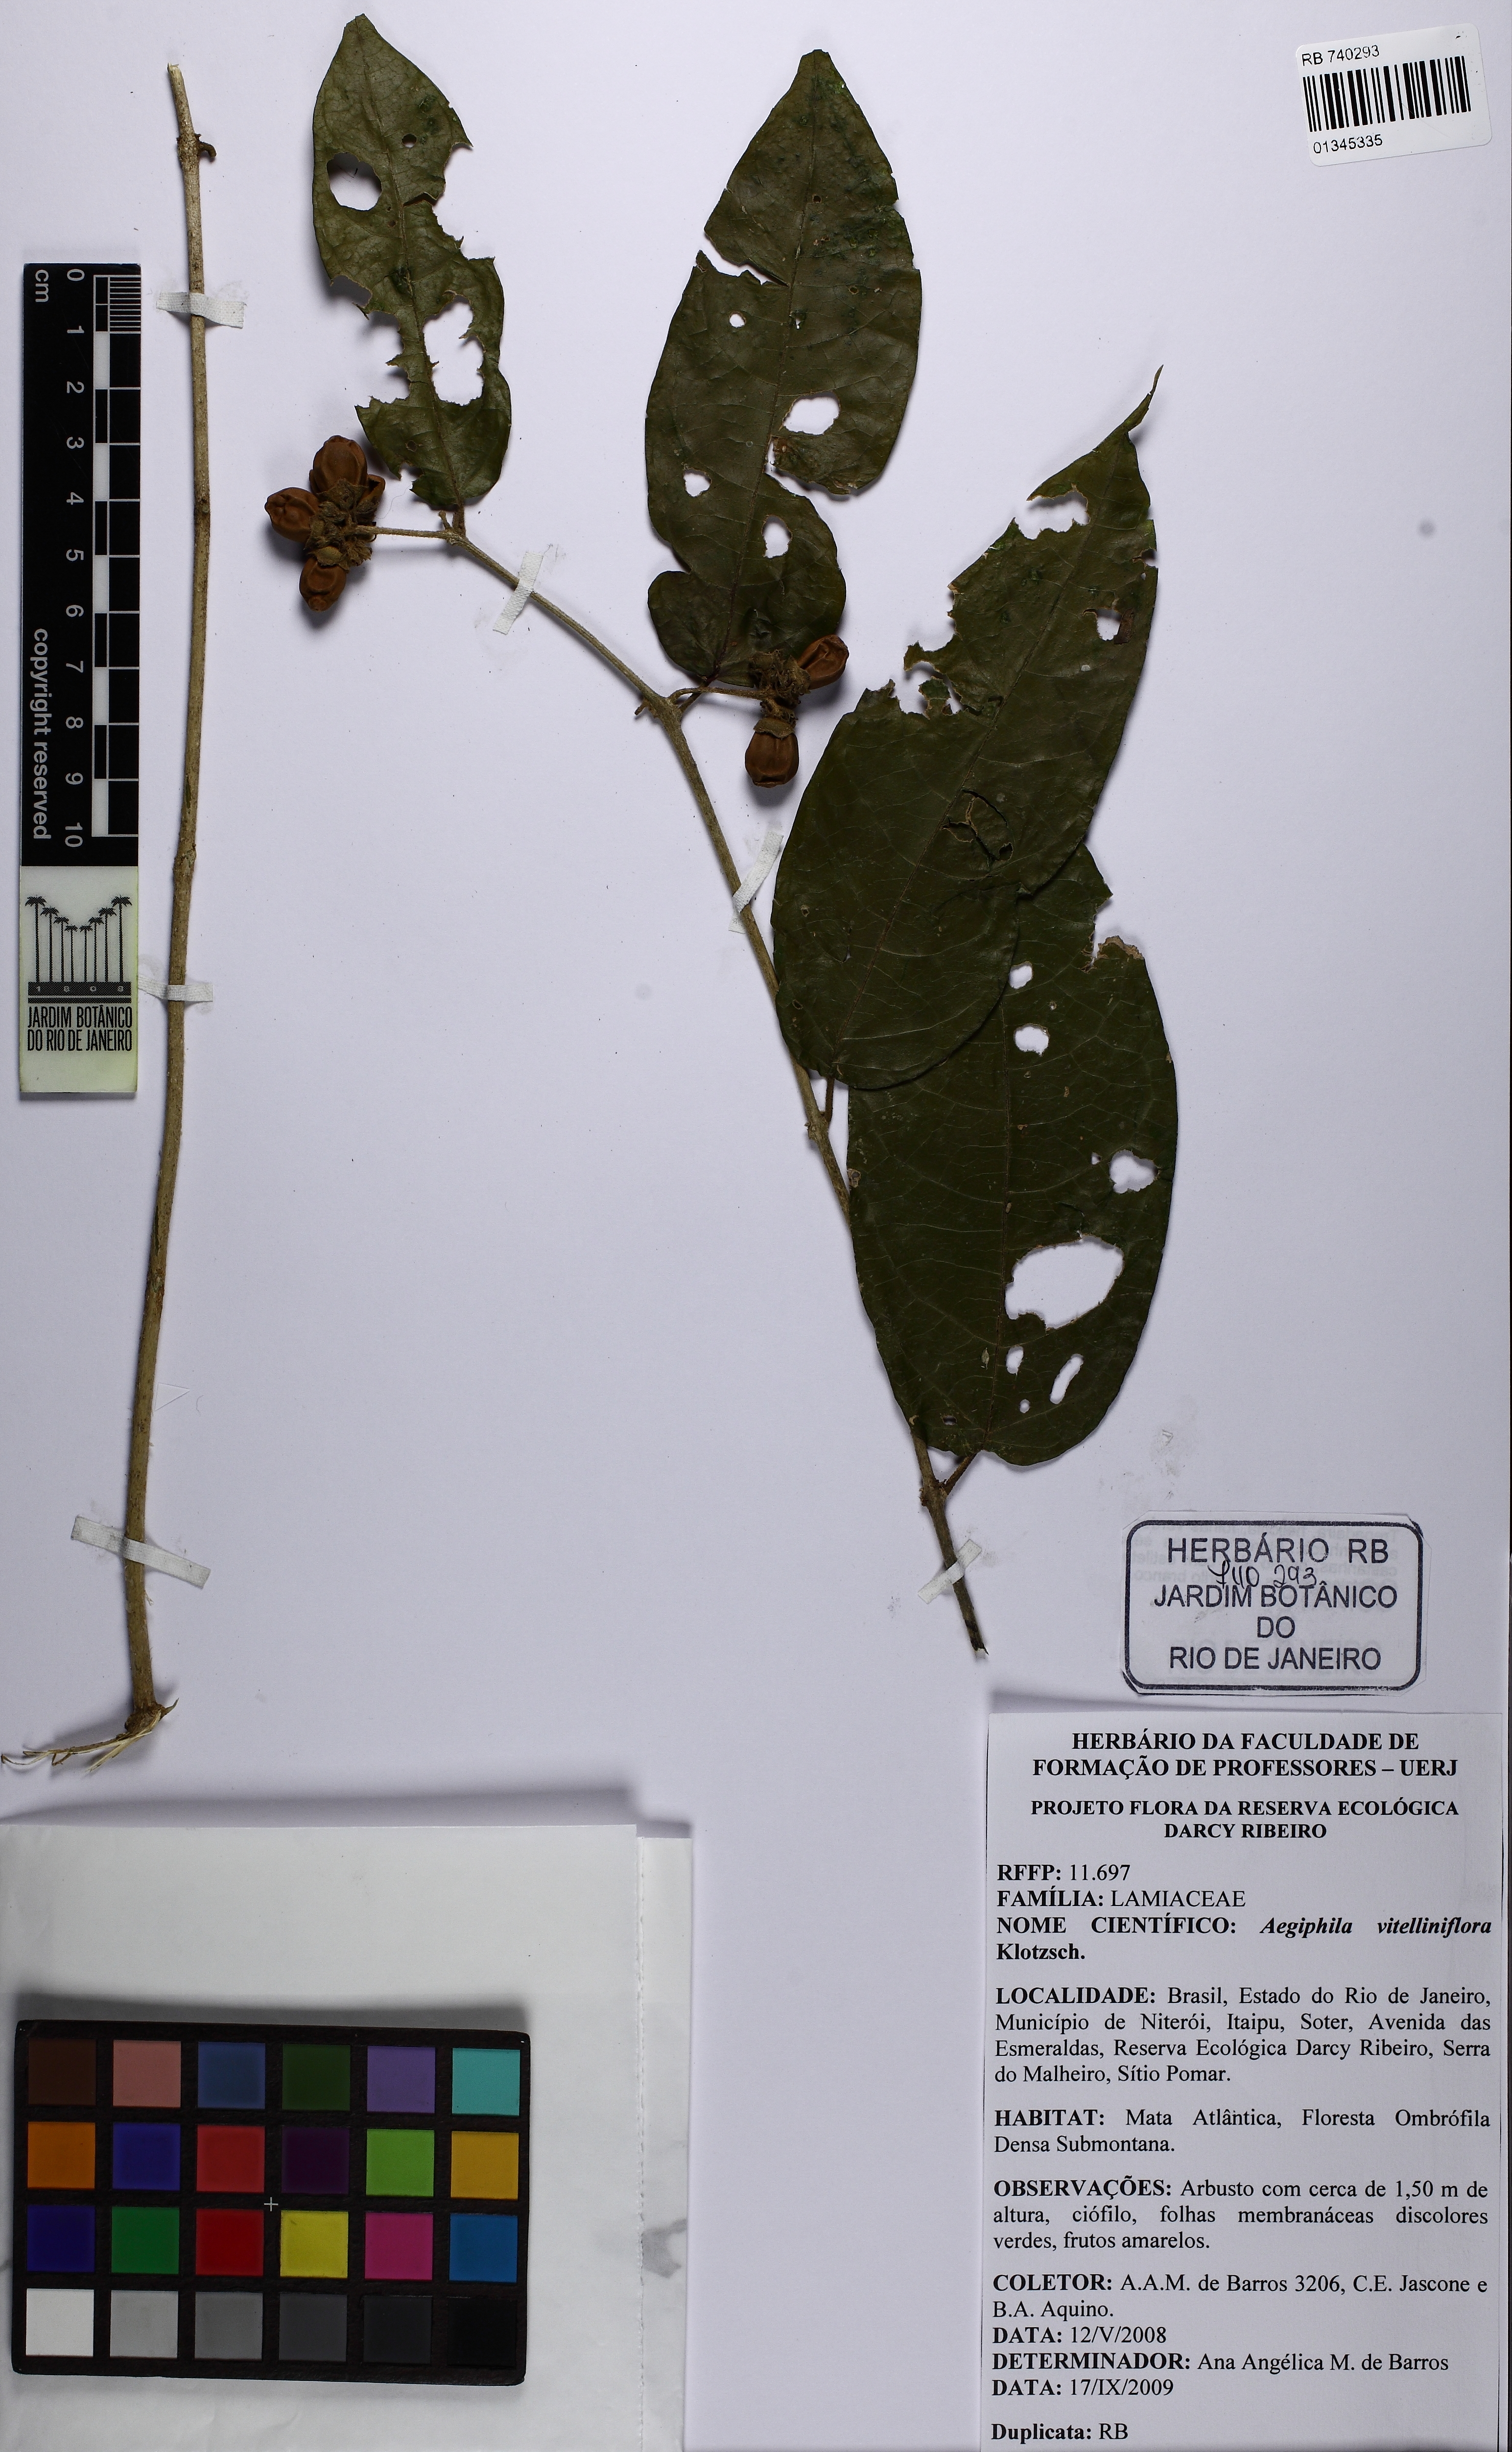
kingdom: Plantae
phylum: Tracheophyta
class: Magnoliopsida
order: Lamiales
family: Lamiaceae
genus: Aegiphila
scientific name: Aegiphila vitelliniflora
